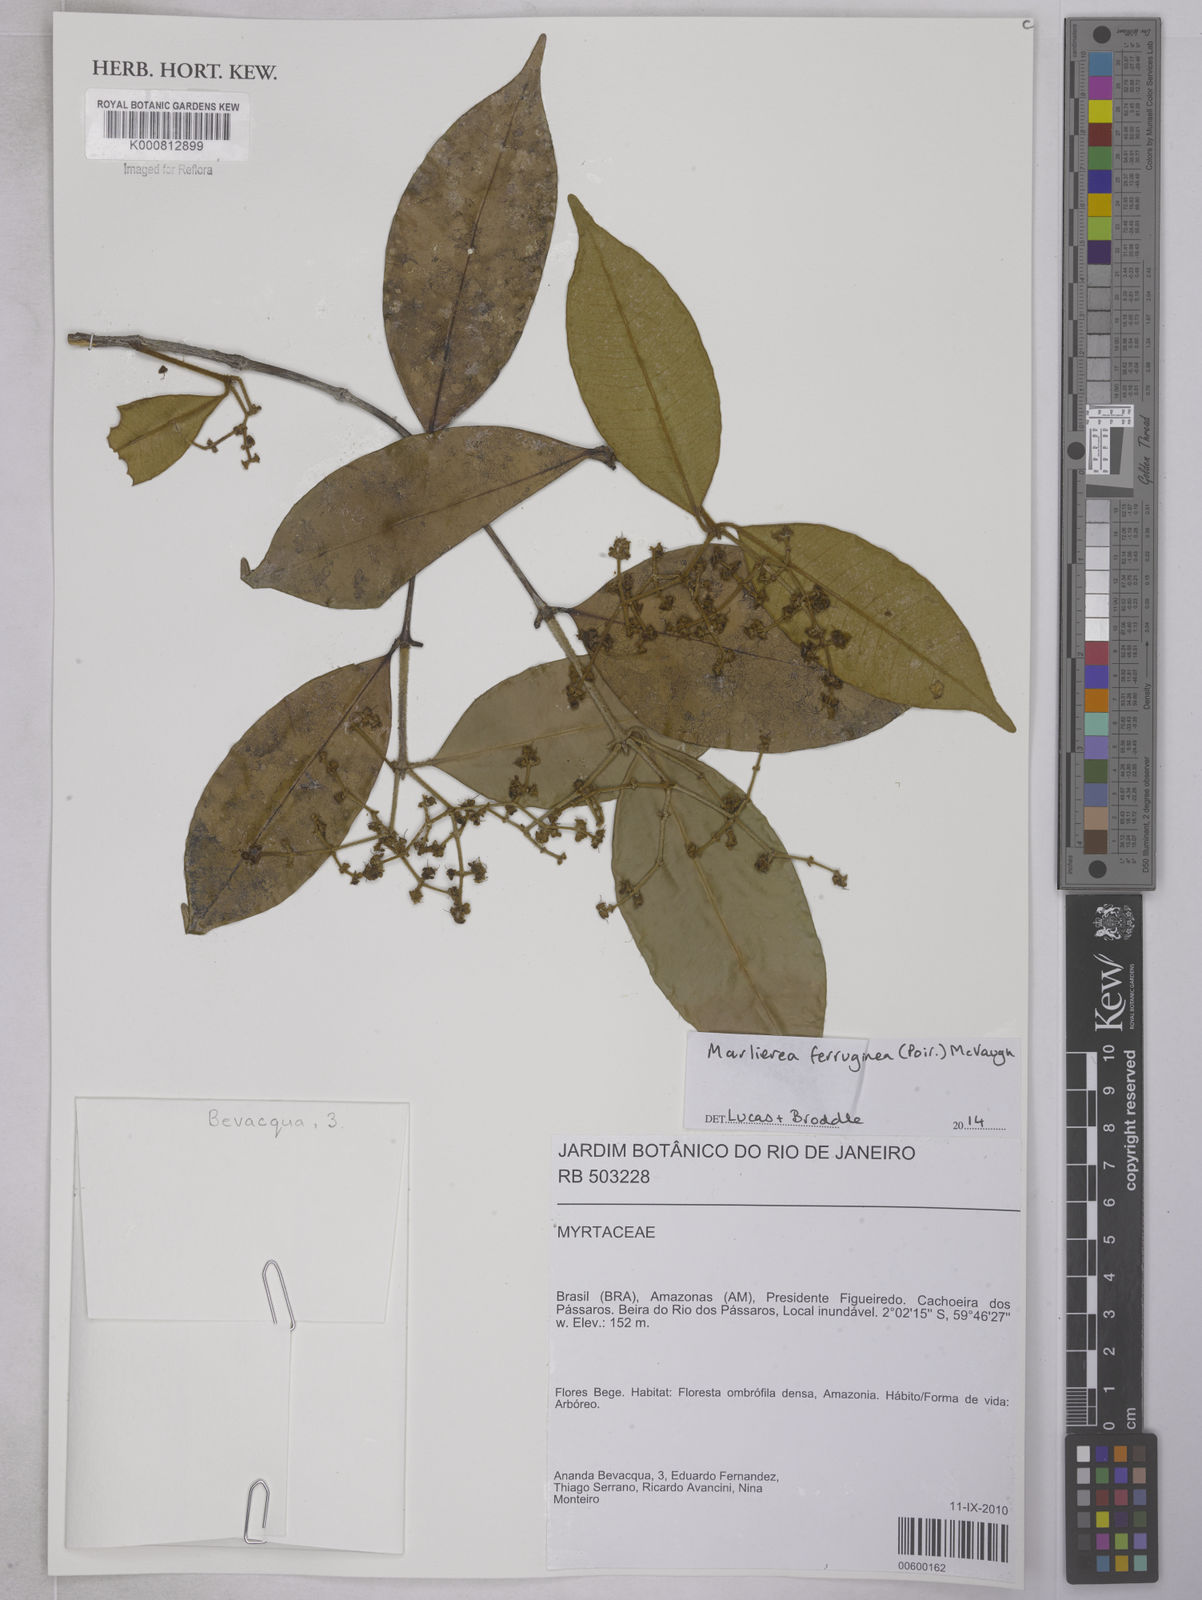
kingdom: Plantae
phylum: Tracheophyta
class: Magnoliopsida
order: Myrtales
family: Myrtaceae
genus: Myrcia
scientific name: Myrcia ferruginea
